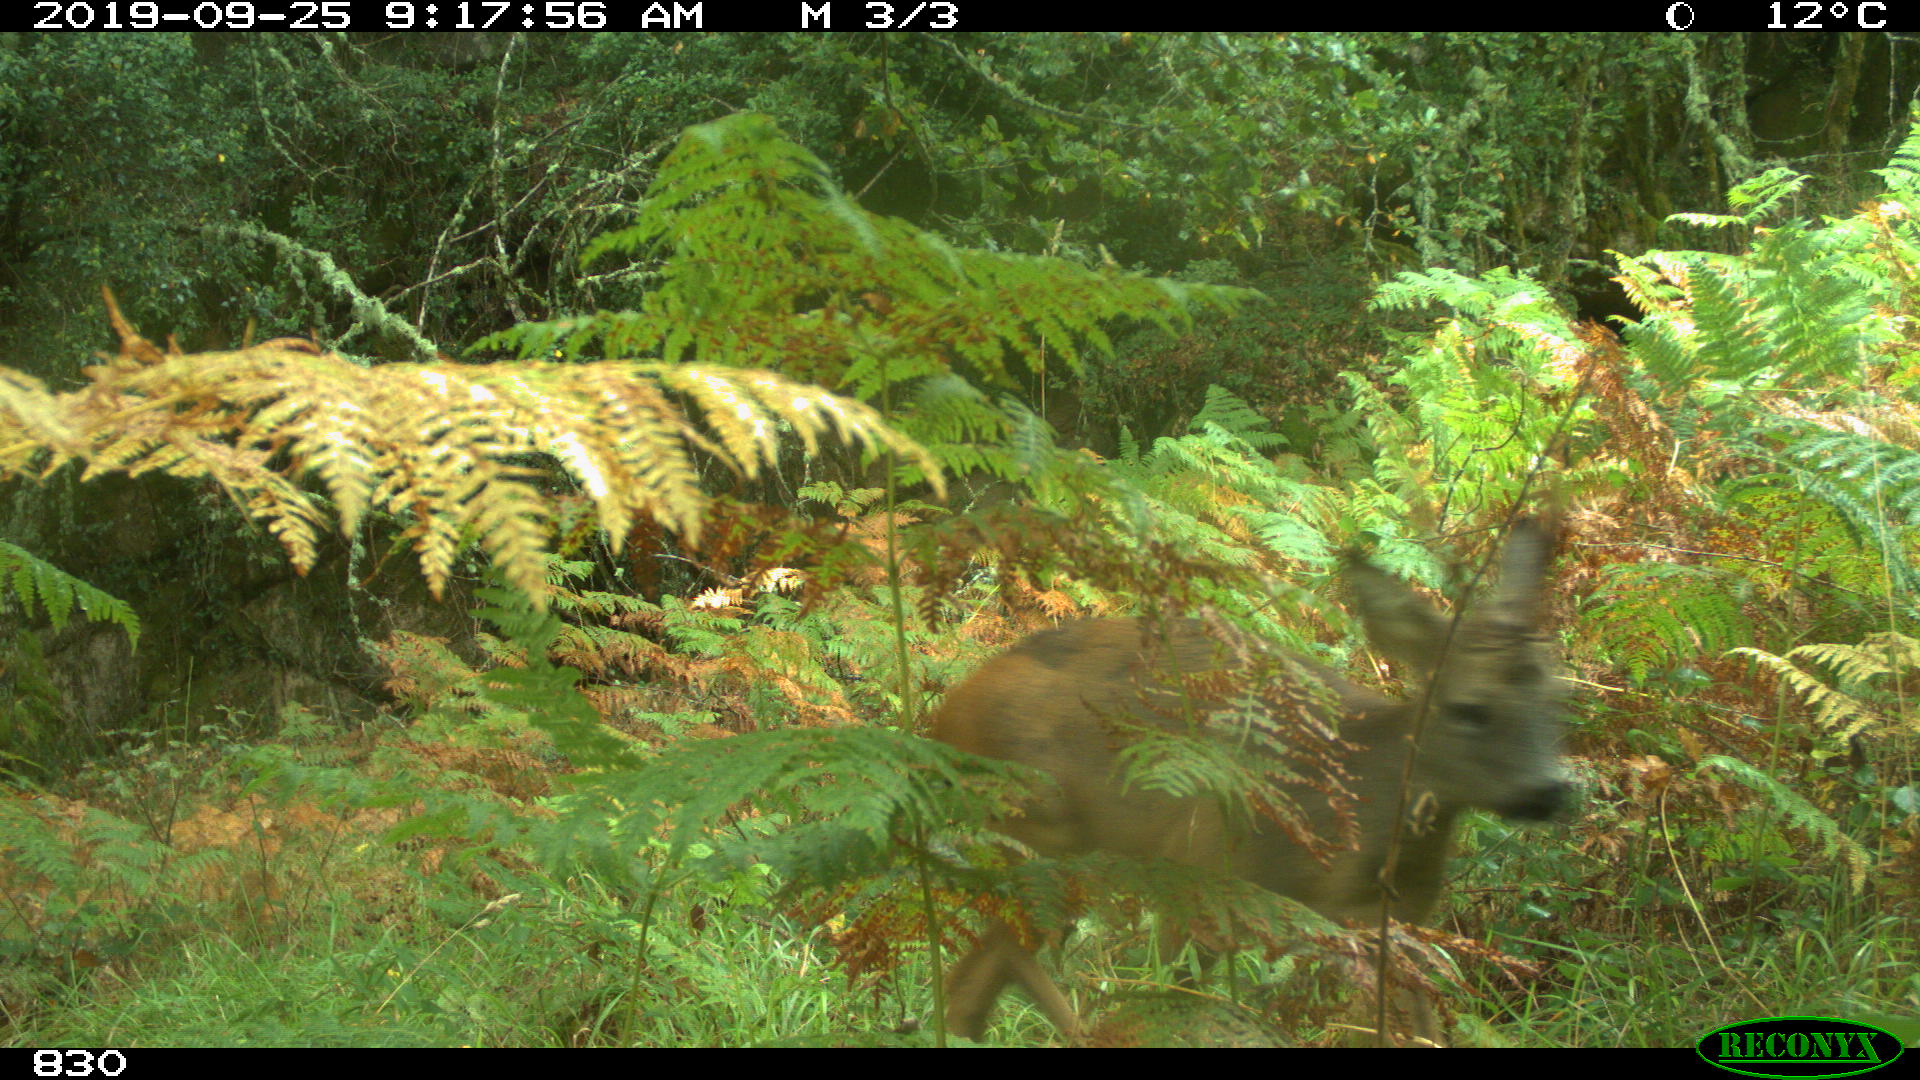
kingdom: Animalia
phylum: Chordata
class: Mammalia
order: Artiodactyla
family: Cervidae
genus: Capreolus
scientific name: Capreolus capreolus
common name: Western roe deer
